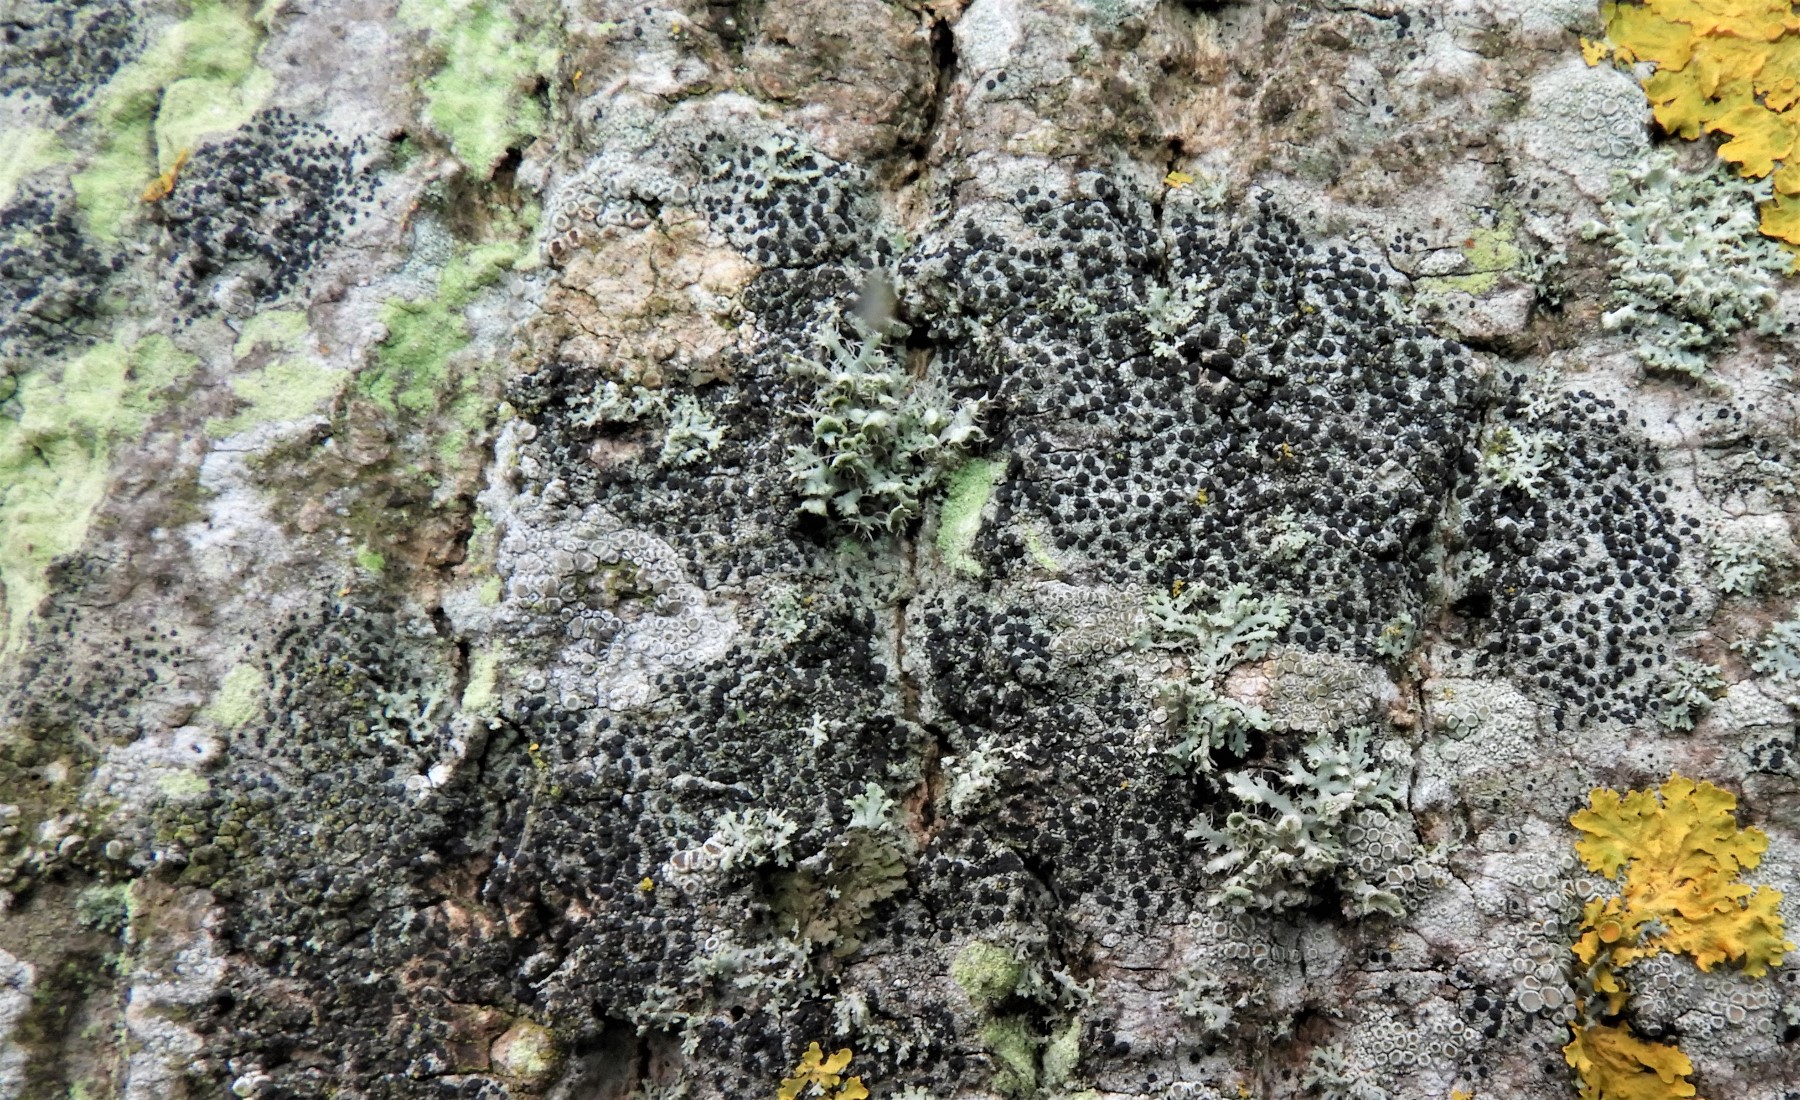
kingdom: Fungi
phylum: Ascomycota
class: Lecanoromycetes
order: Lecanorales
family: Lecanoraceae
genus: Lecidella
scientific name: Lecidella elaeochroma
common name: grågrøn skivelav
